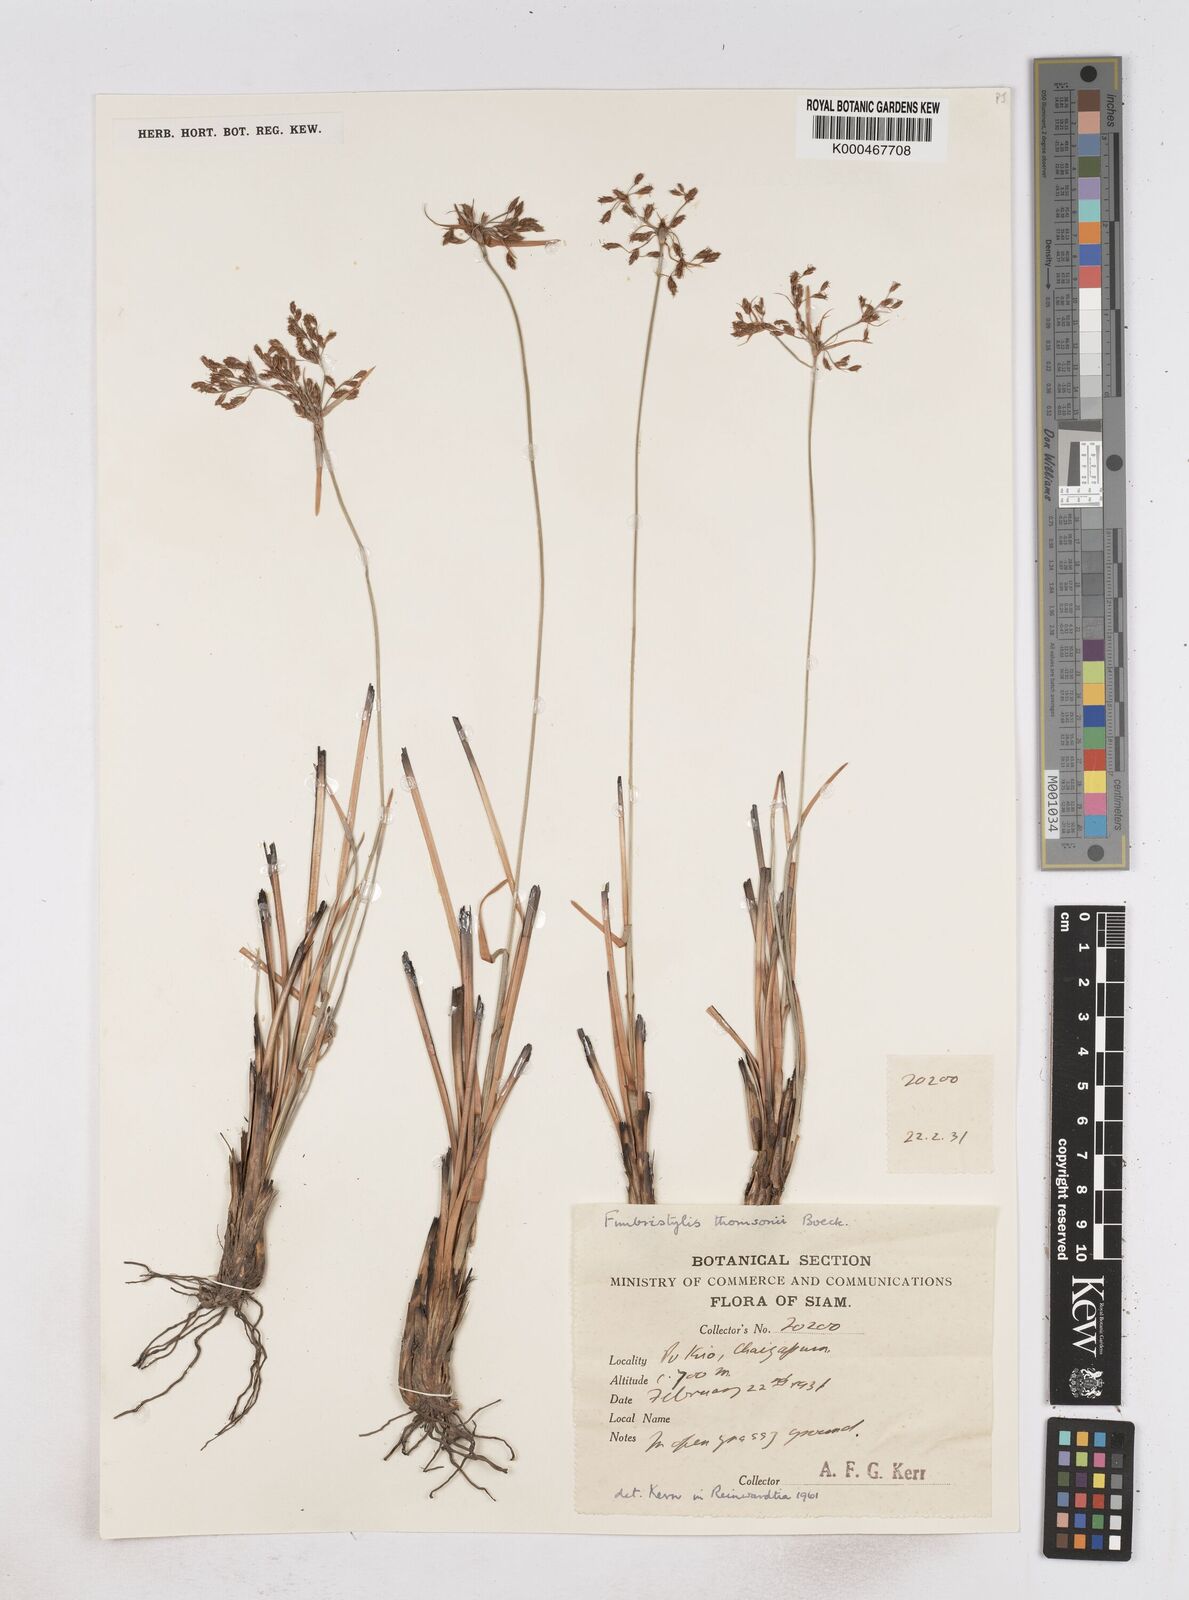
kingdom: Plantae
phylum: Tracheophyta
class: Liliopsida
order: Poales
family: Cyperaceae
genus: Fimbristylis
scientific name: Fimbristylis thomsonii
